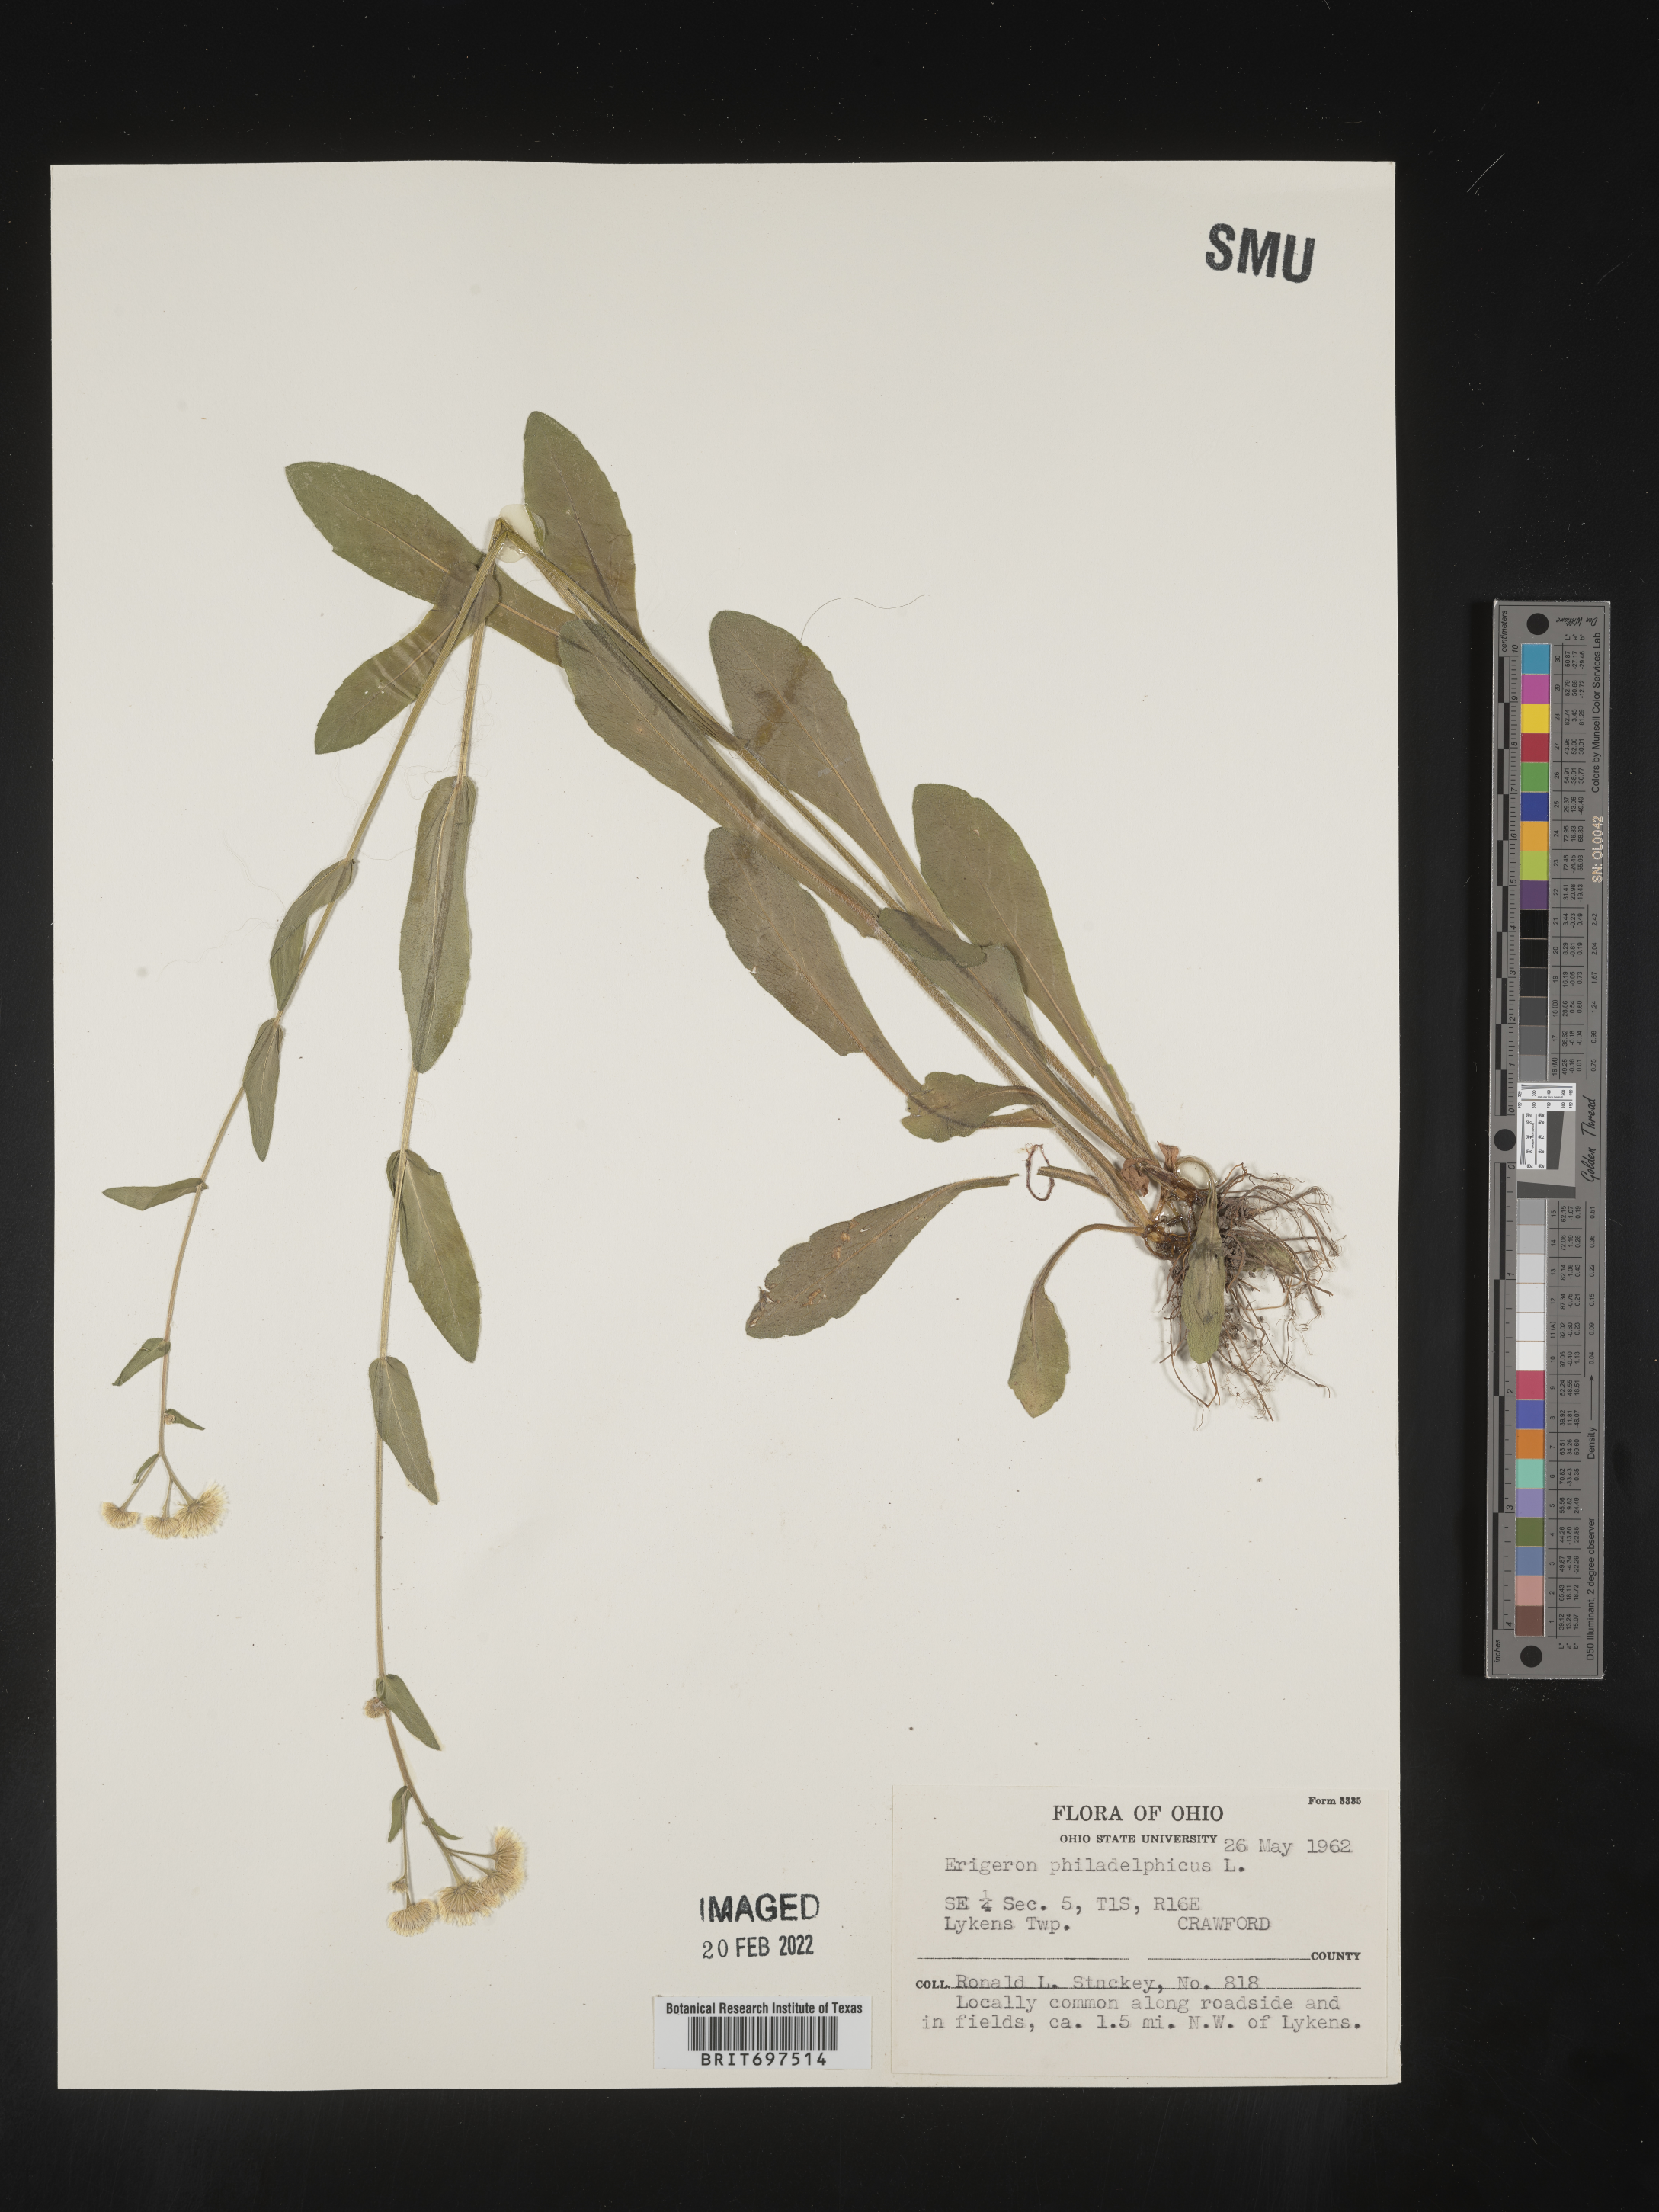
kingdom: Plantae
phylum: Tracheophyta
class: Magnoliopsida
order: Asterales
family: Asteraceae
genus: Erigeron
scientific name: Erigeron philadelphicus
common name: Robin's-plantain
